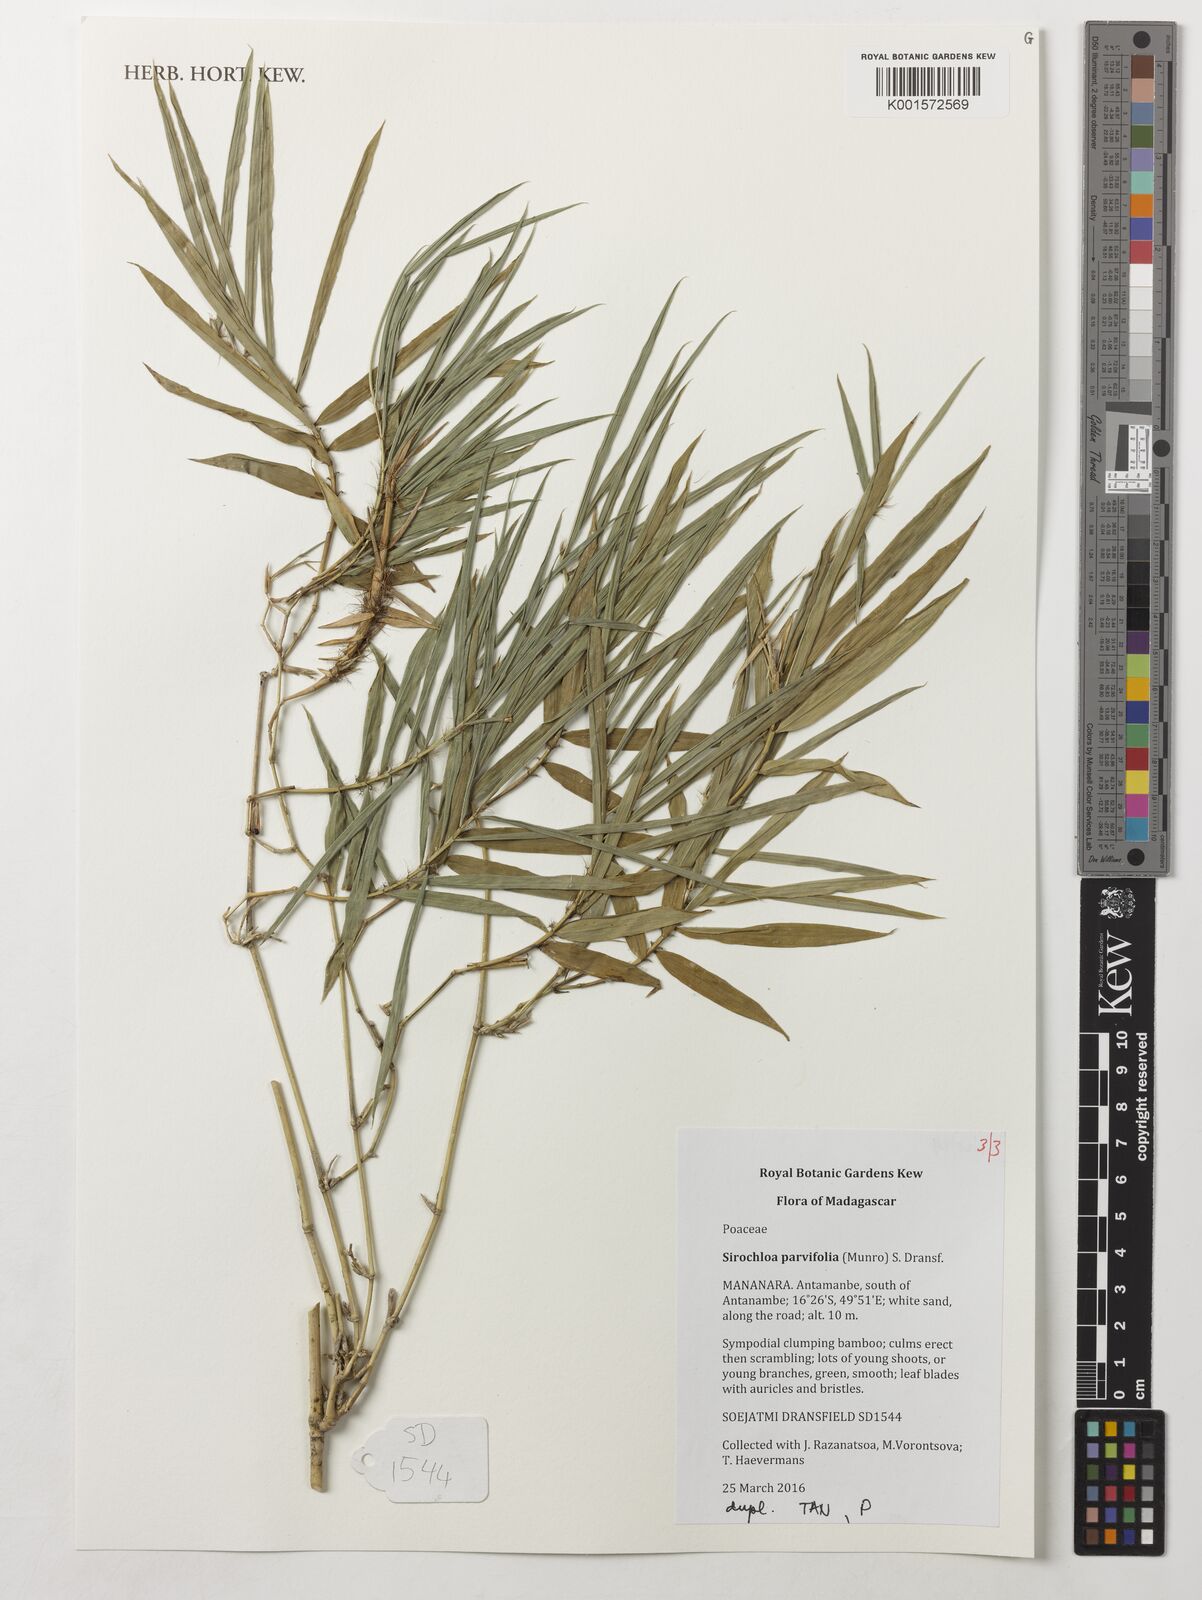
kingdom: Plantae
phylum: Tracheophyta
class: Liliopsida
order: Poales
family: Poaceae
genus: Sirochloa
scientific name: Sirochloa parvifolia
